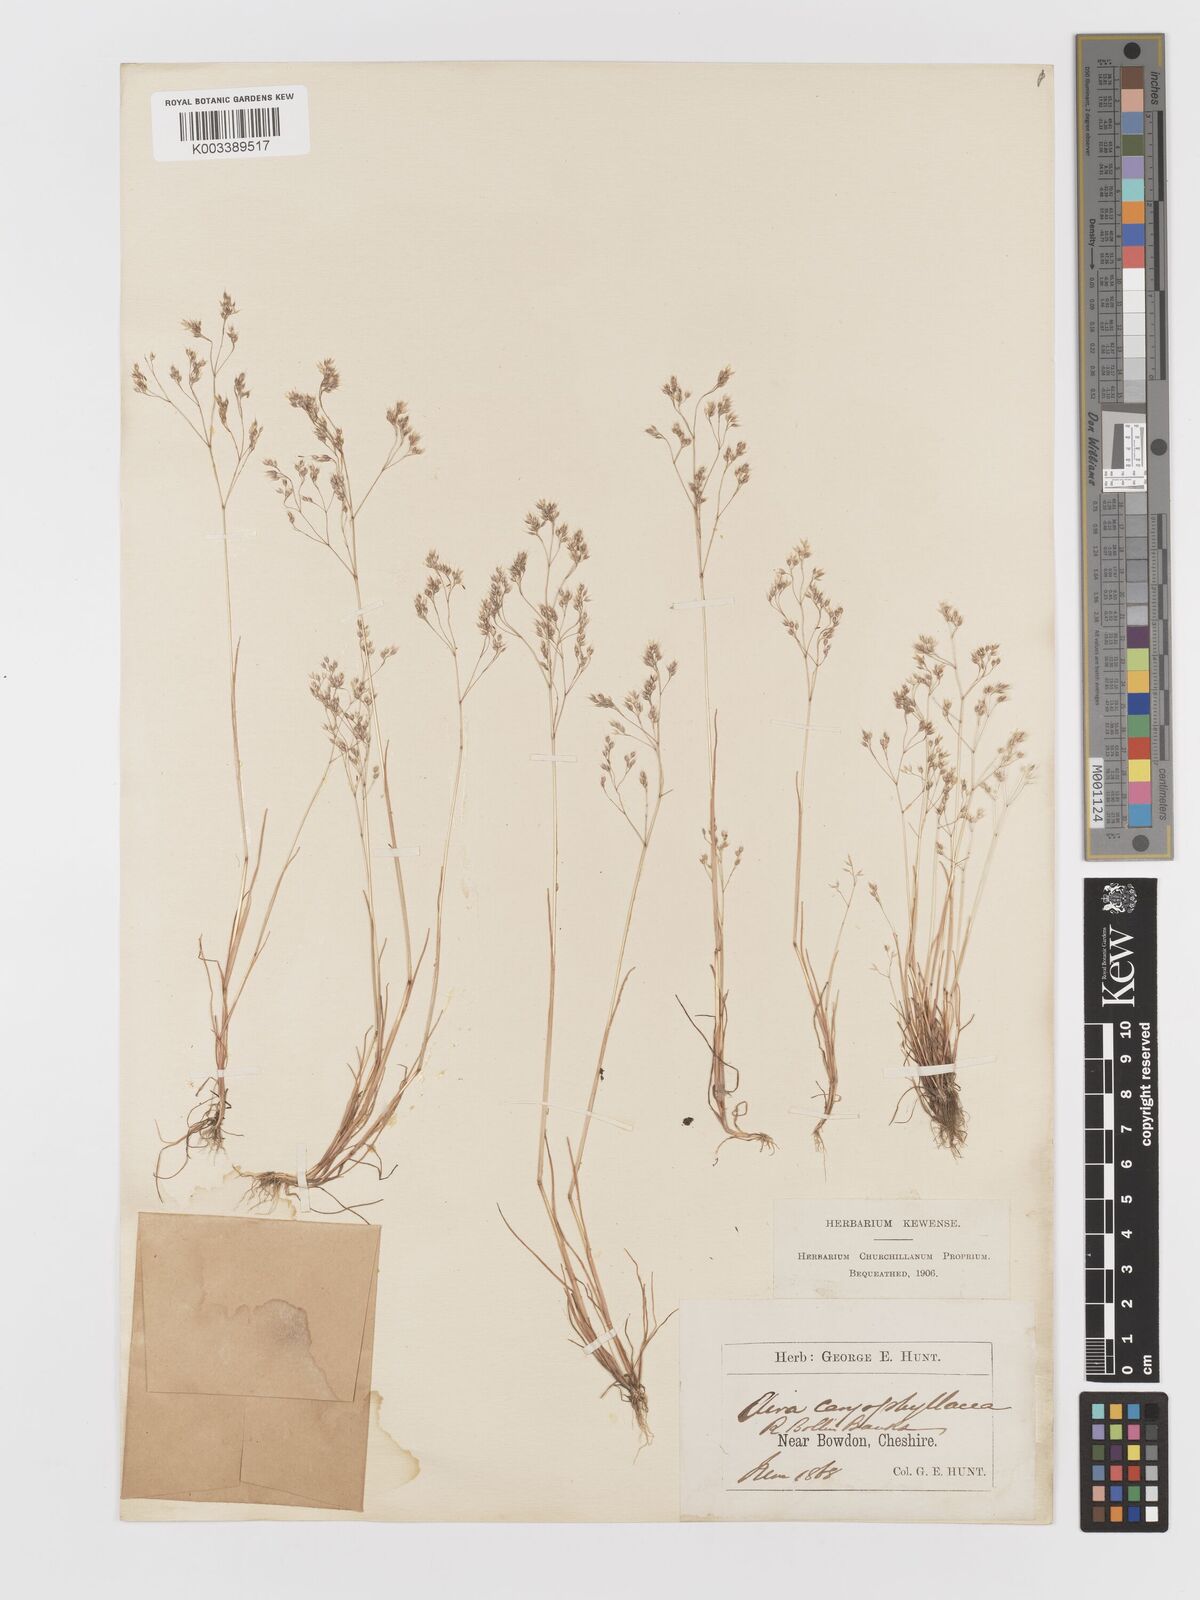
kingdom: Plantae
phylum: Tracheophyta
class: Liliopsida
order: Poales
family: Poaceae
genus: Aira
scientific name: Aira caryophyllea
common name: Silver hairgrass
